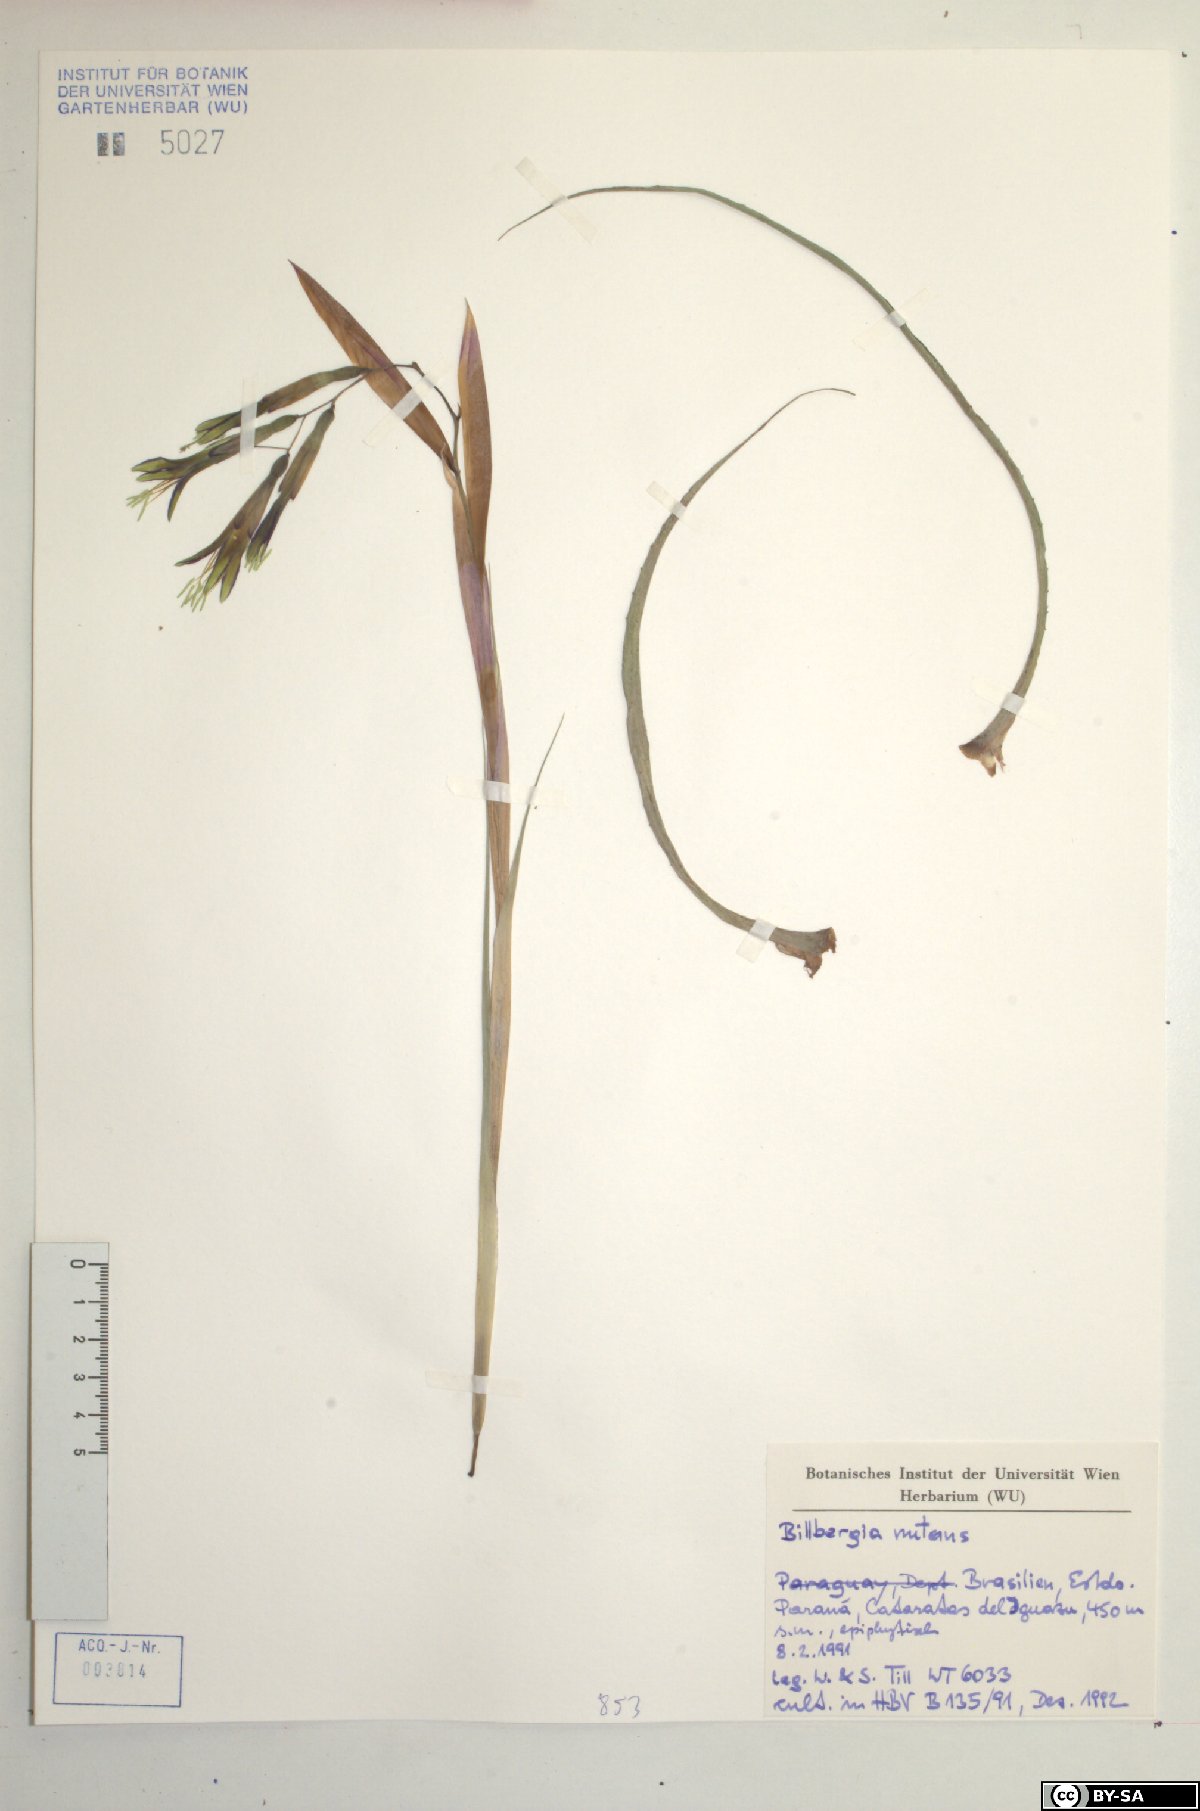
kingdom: Plantae
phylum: Tracheophyta
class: Liliopsida
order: Poales
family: Bromeliaceae
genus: Billbergia
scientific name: Billbergia nutans
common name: Friendship-plant
